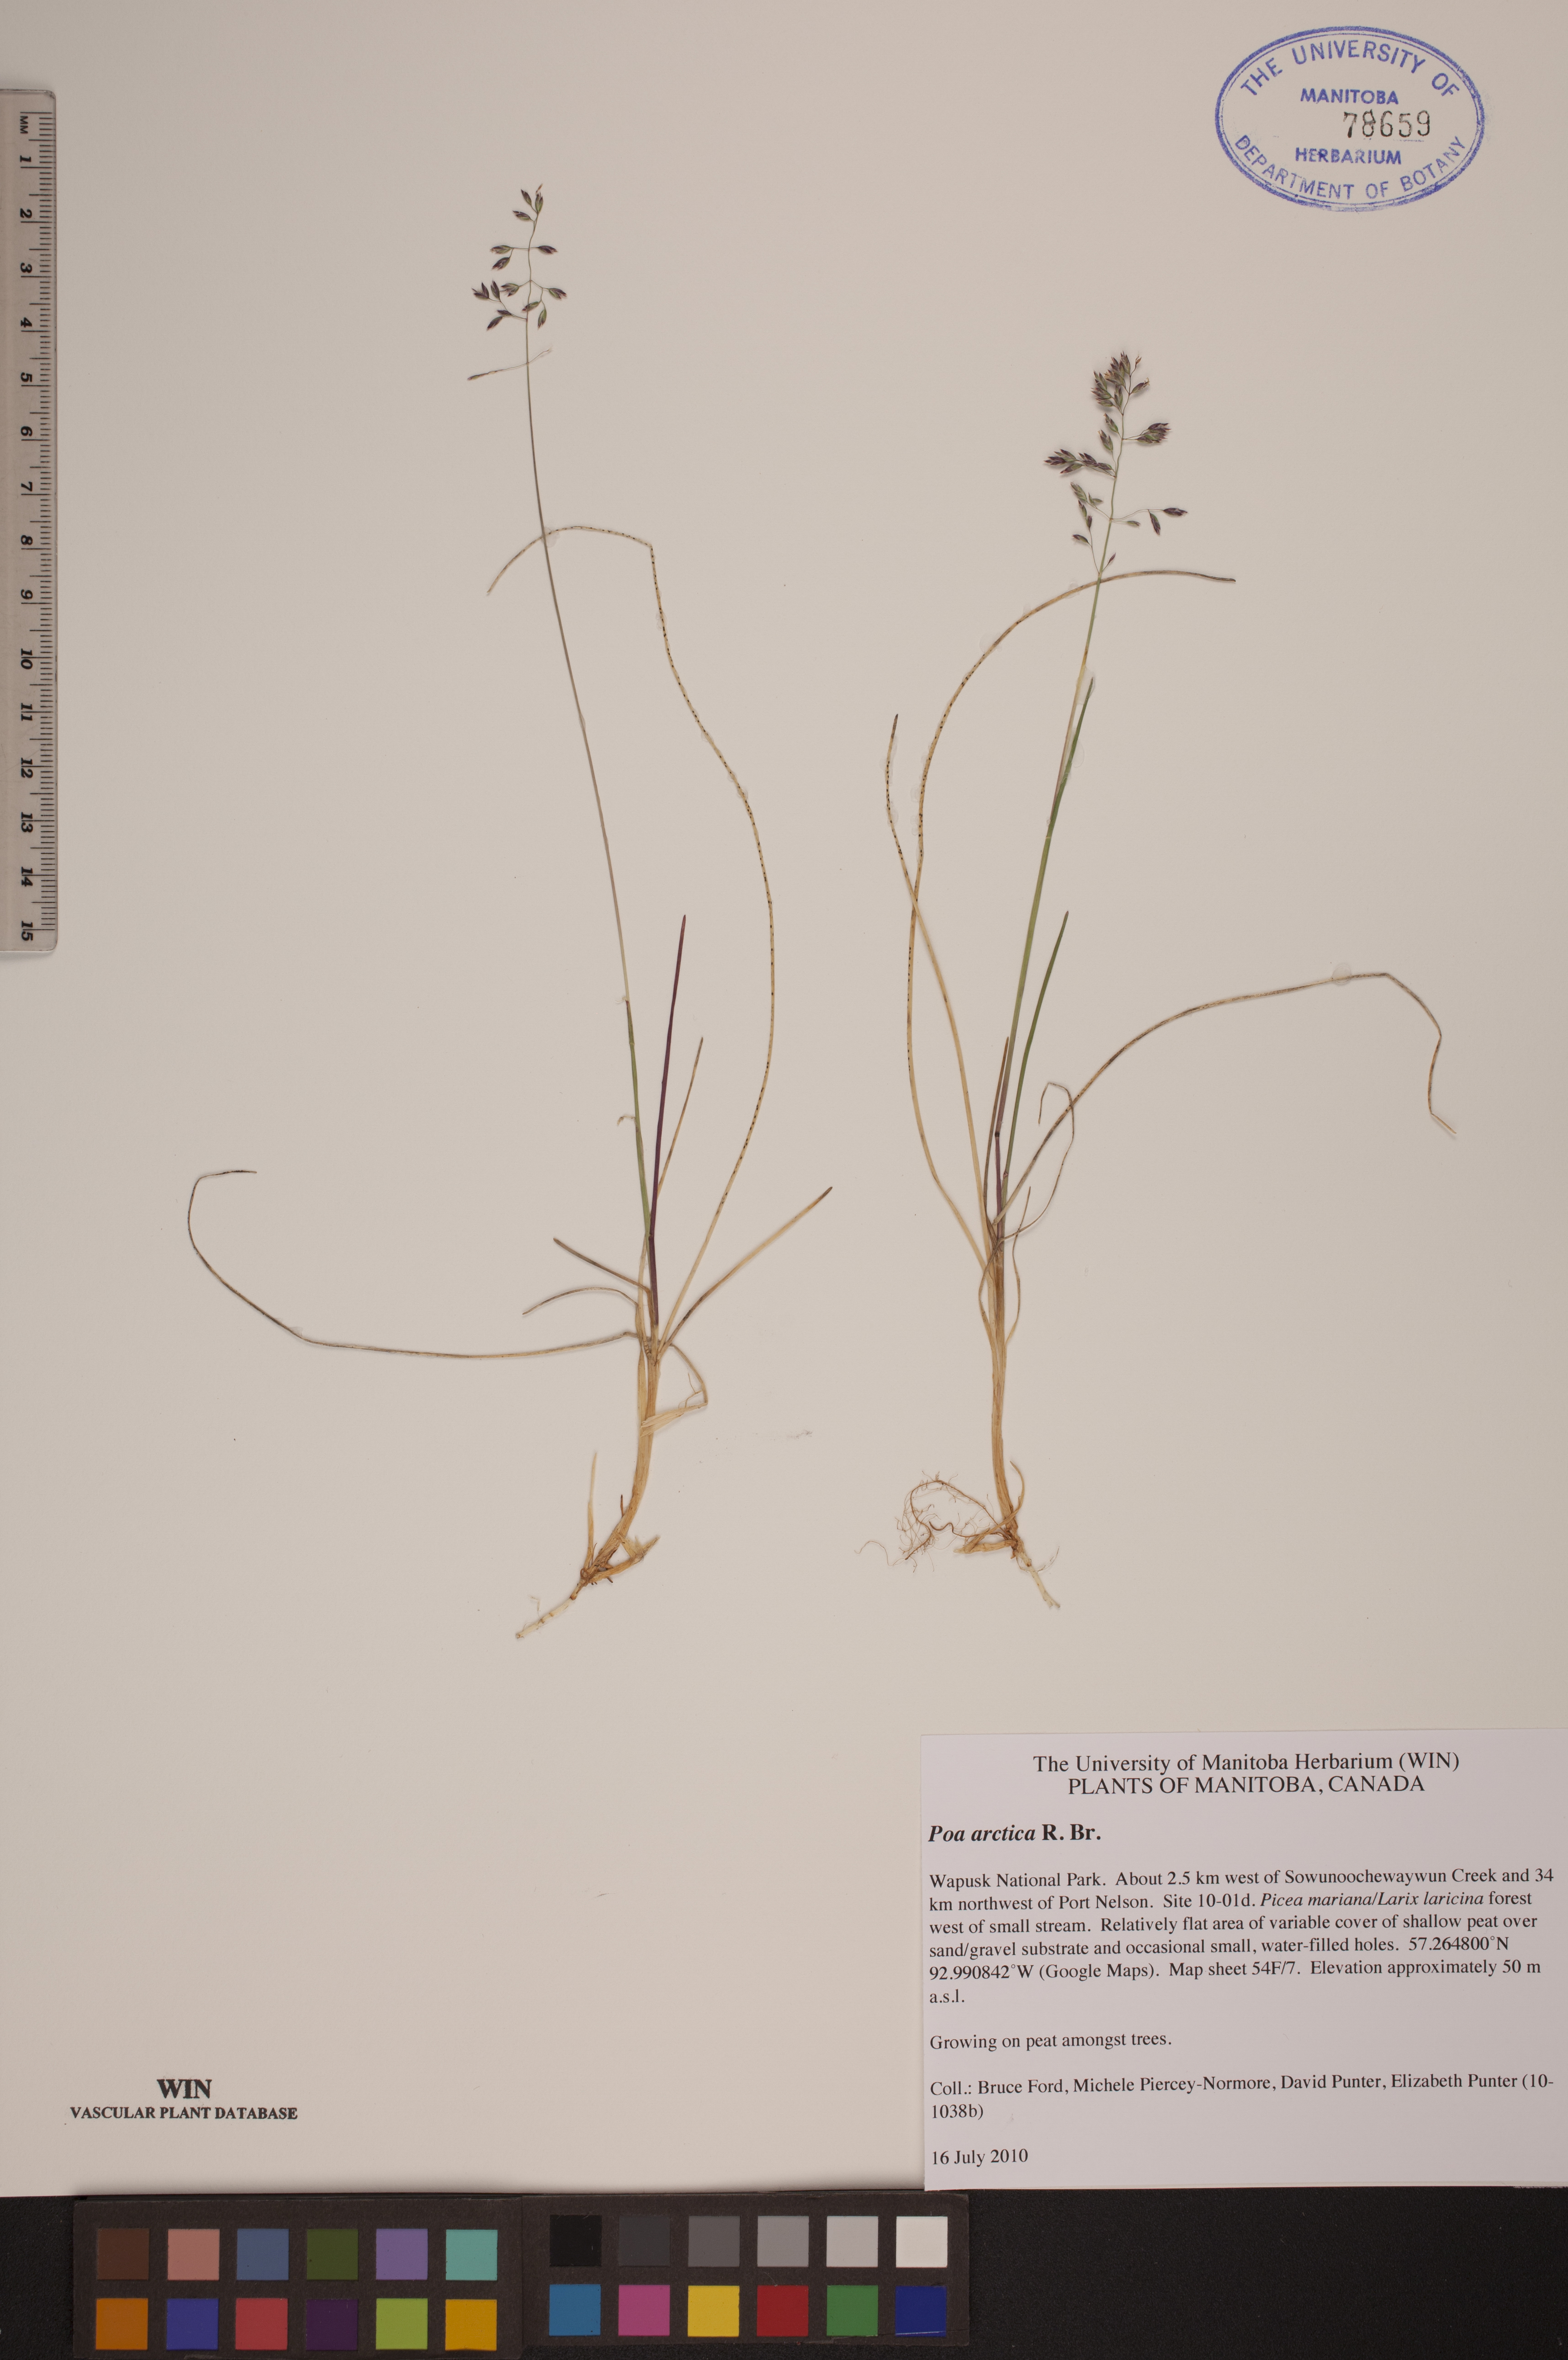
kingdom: Plantae
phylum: Tracheophyta
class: Liliopsida
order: Poales
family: Poaceae
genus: Poa
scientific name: Poa arctica
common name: Arctic bluegrass
